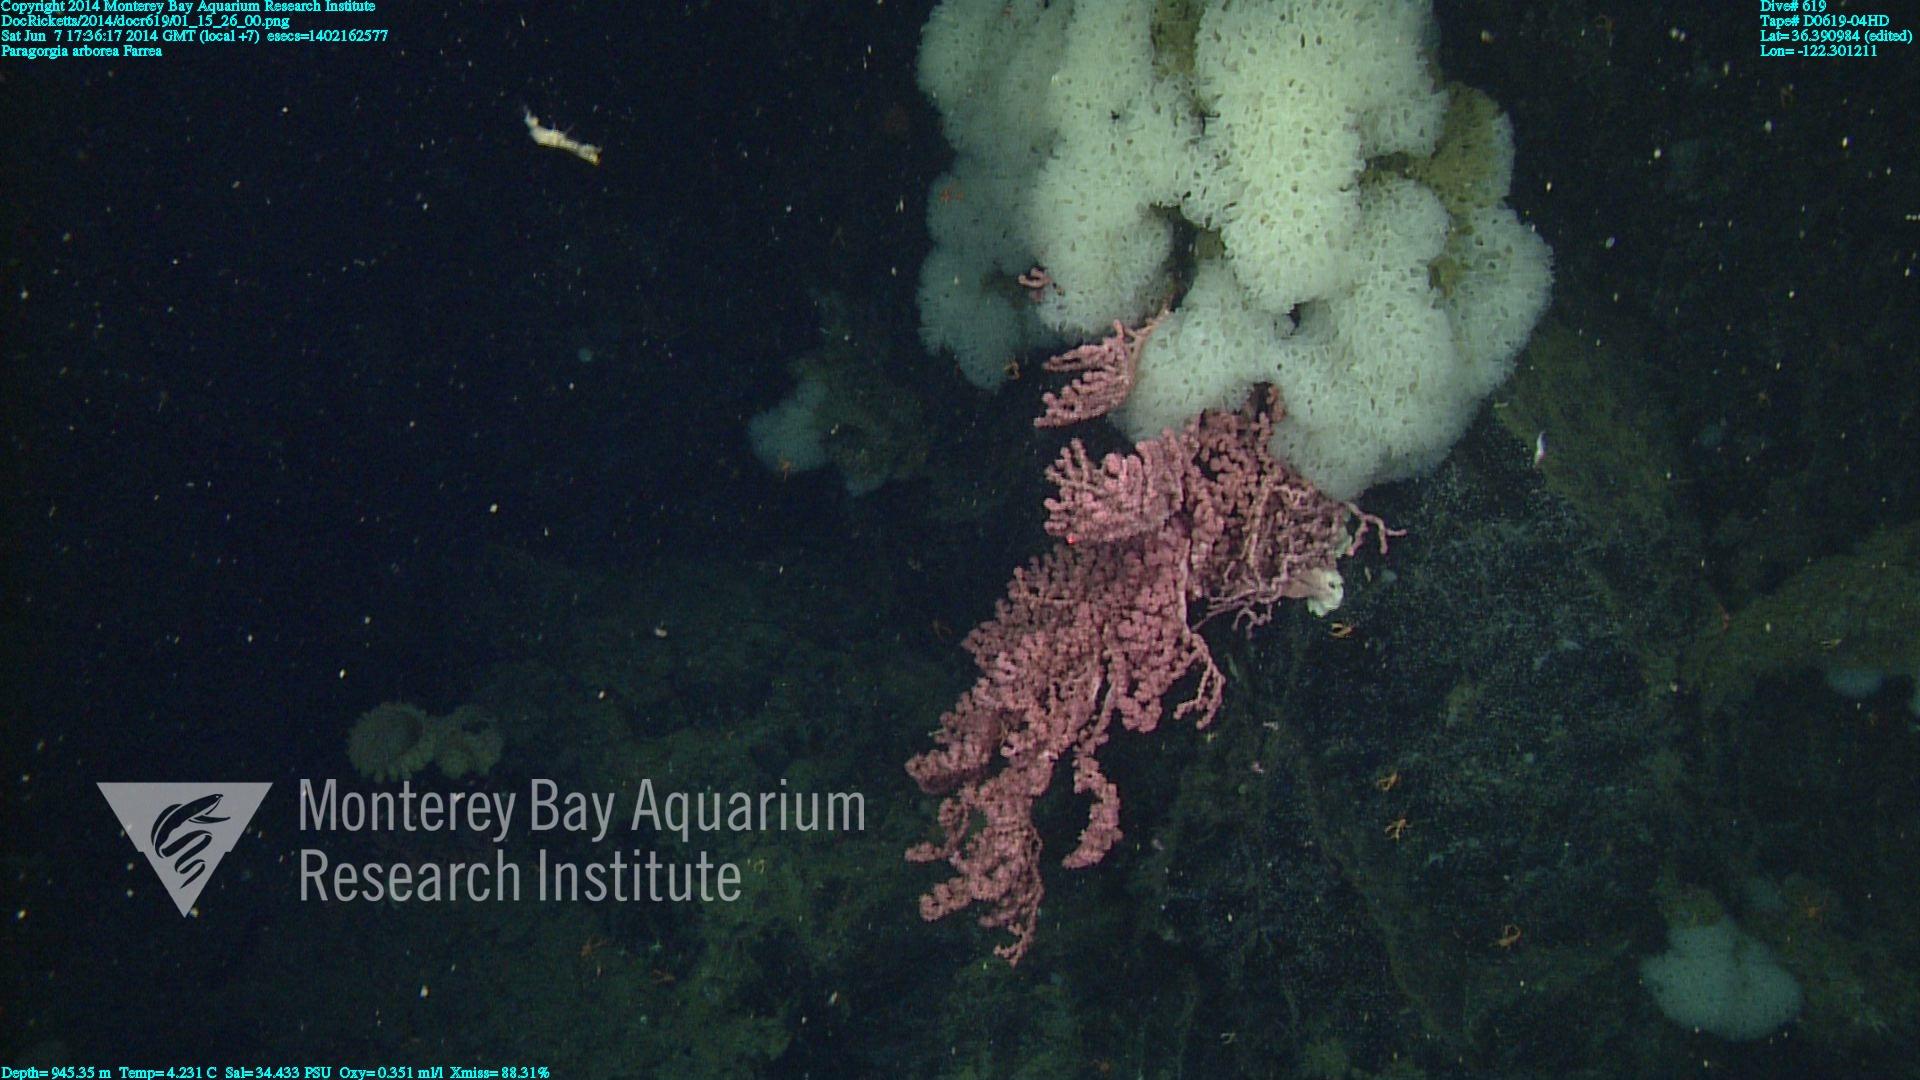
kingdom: Animalia
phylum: Cnidaria
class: Anthozoa
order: Scleralcyonacea
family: Coralliidae
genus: Paragorgia
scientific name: Paragorgia arborea
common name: Bubble gum coral
